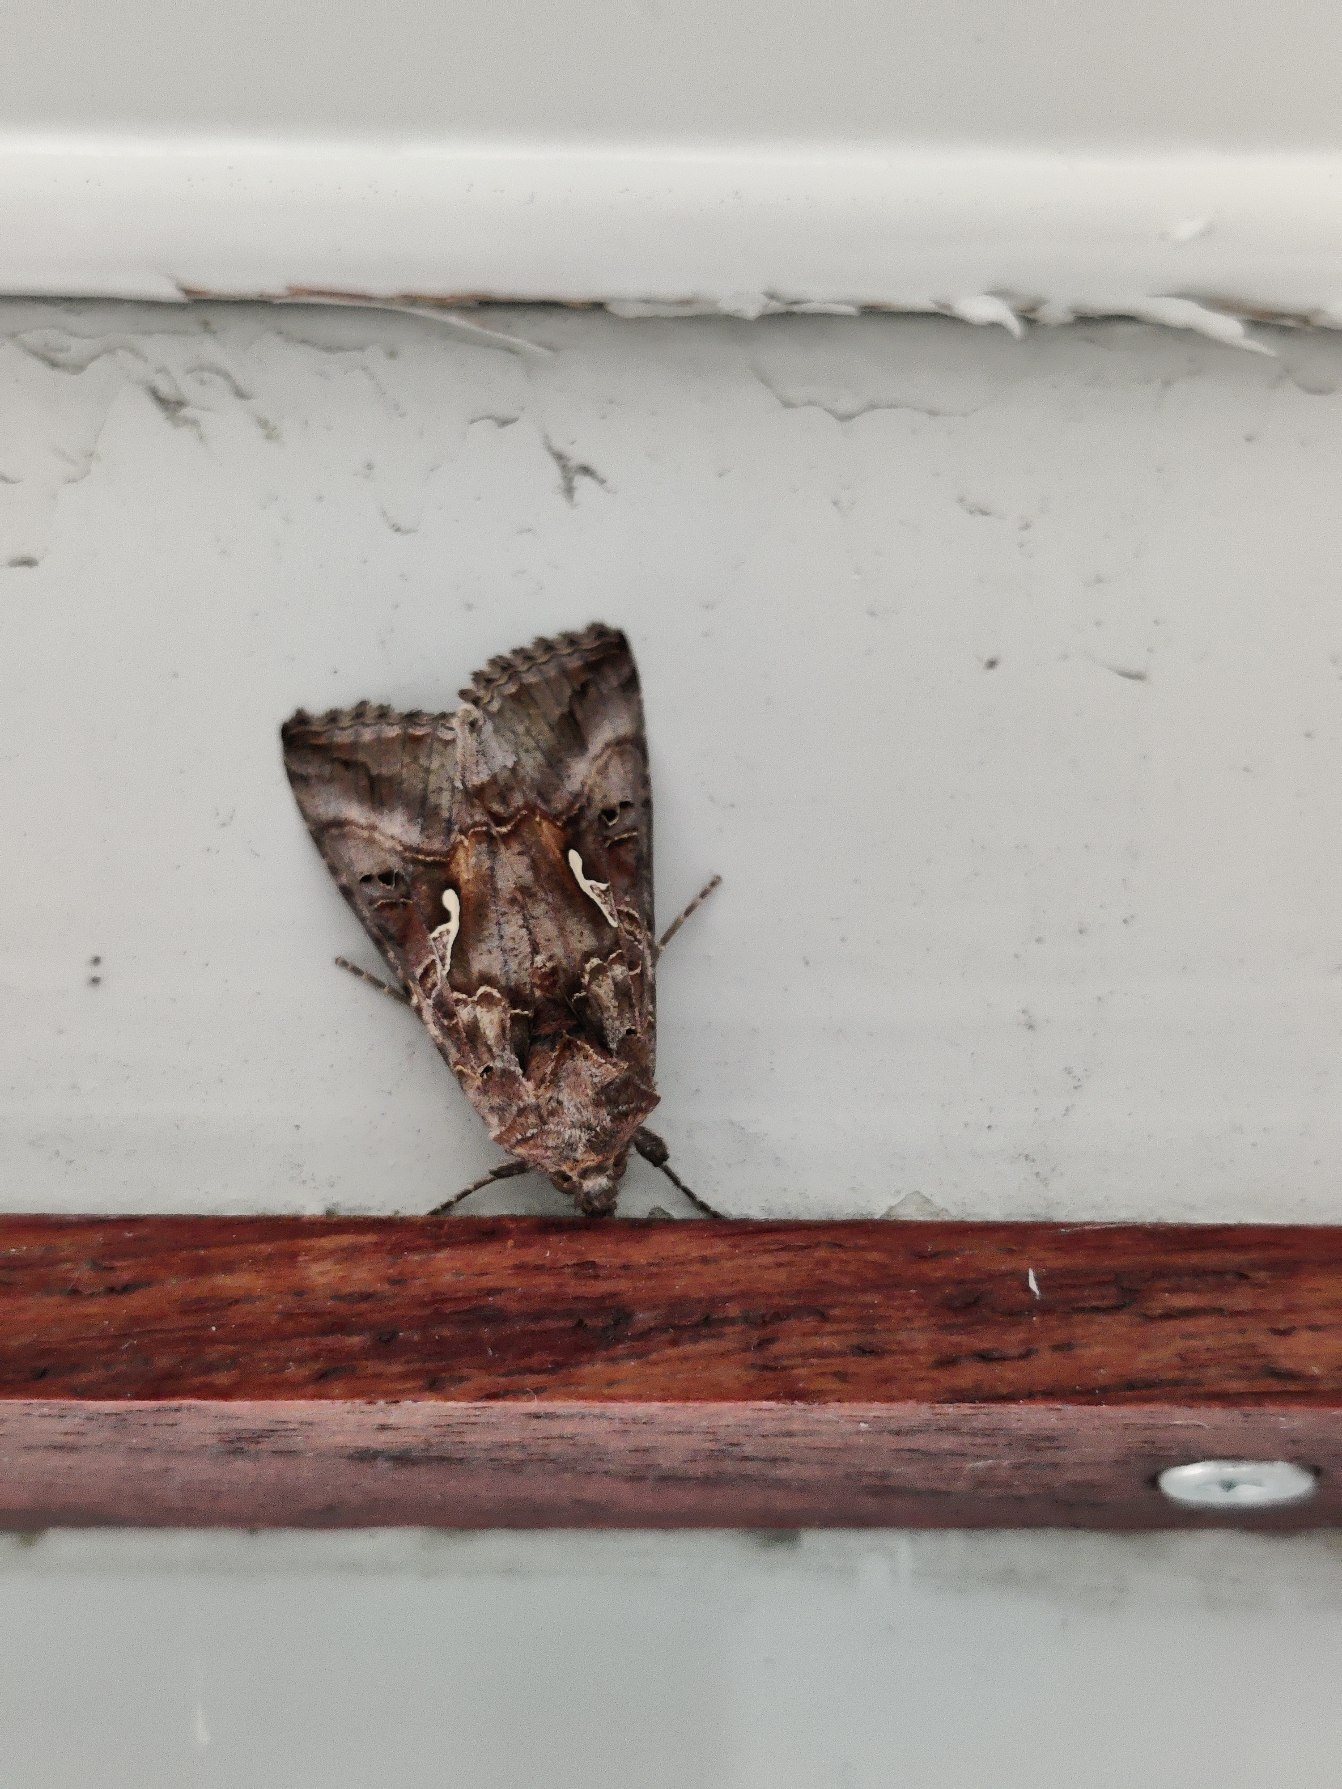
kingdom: Animalia
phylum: Arthropoda
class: Insecta
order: Lepidoptera
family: Noctuidae
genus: Autographa
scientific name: Autographa gamma
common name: Gammaugle
